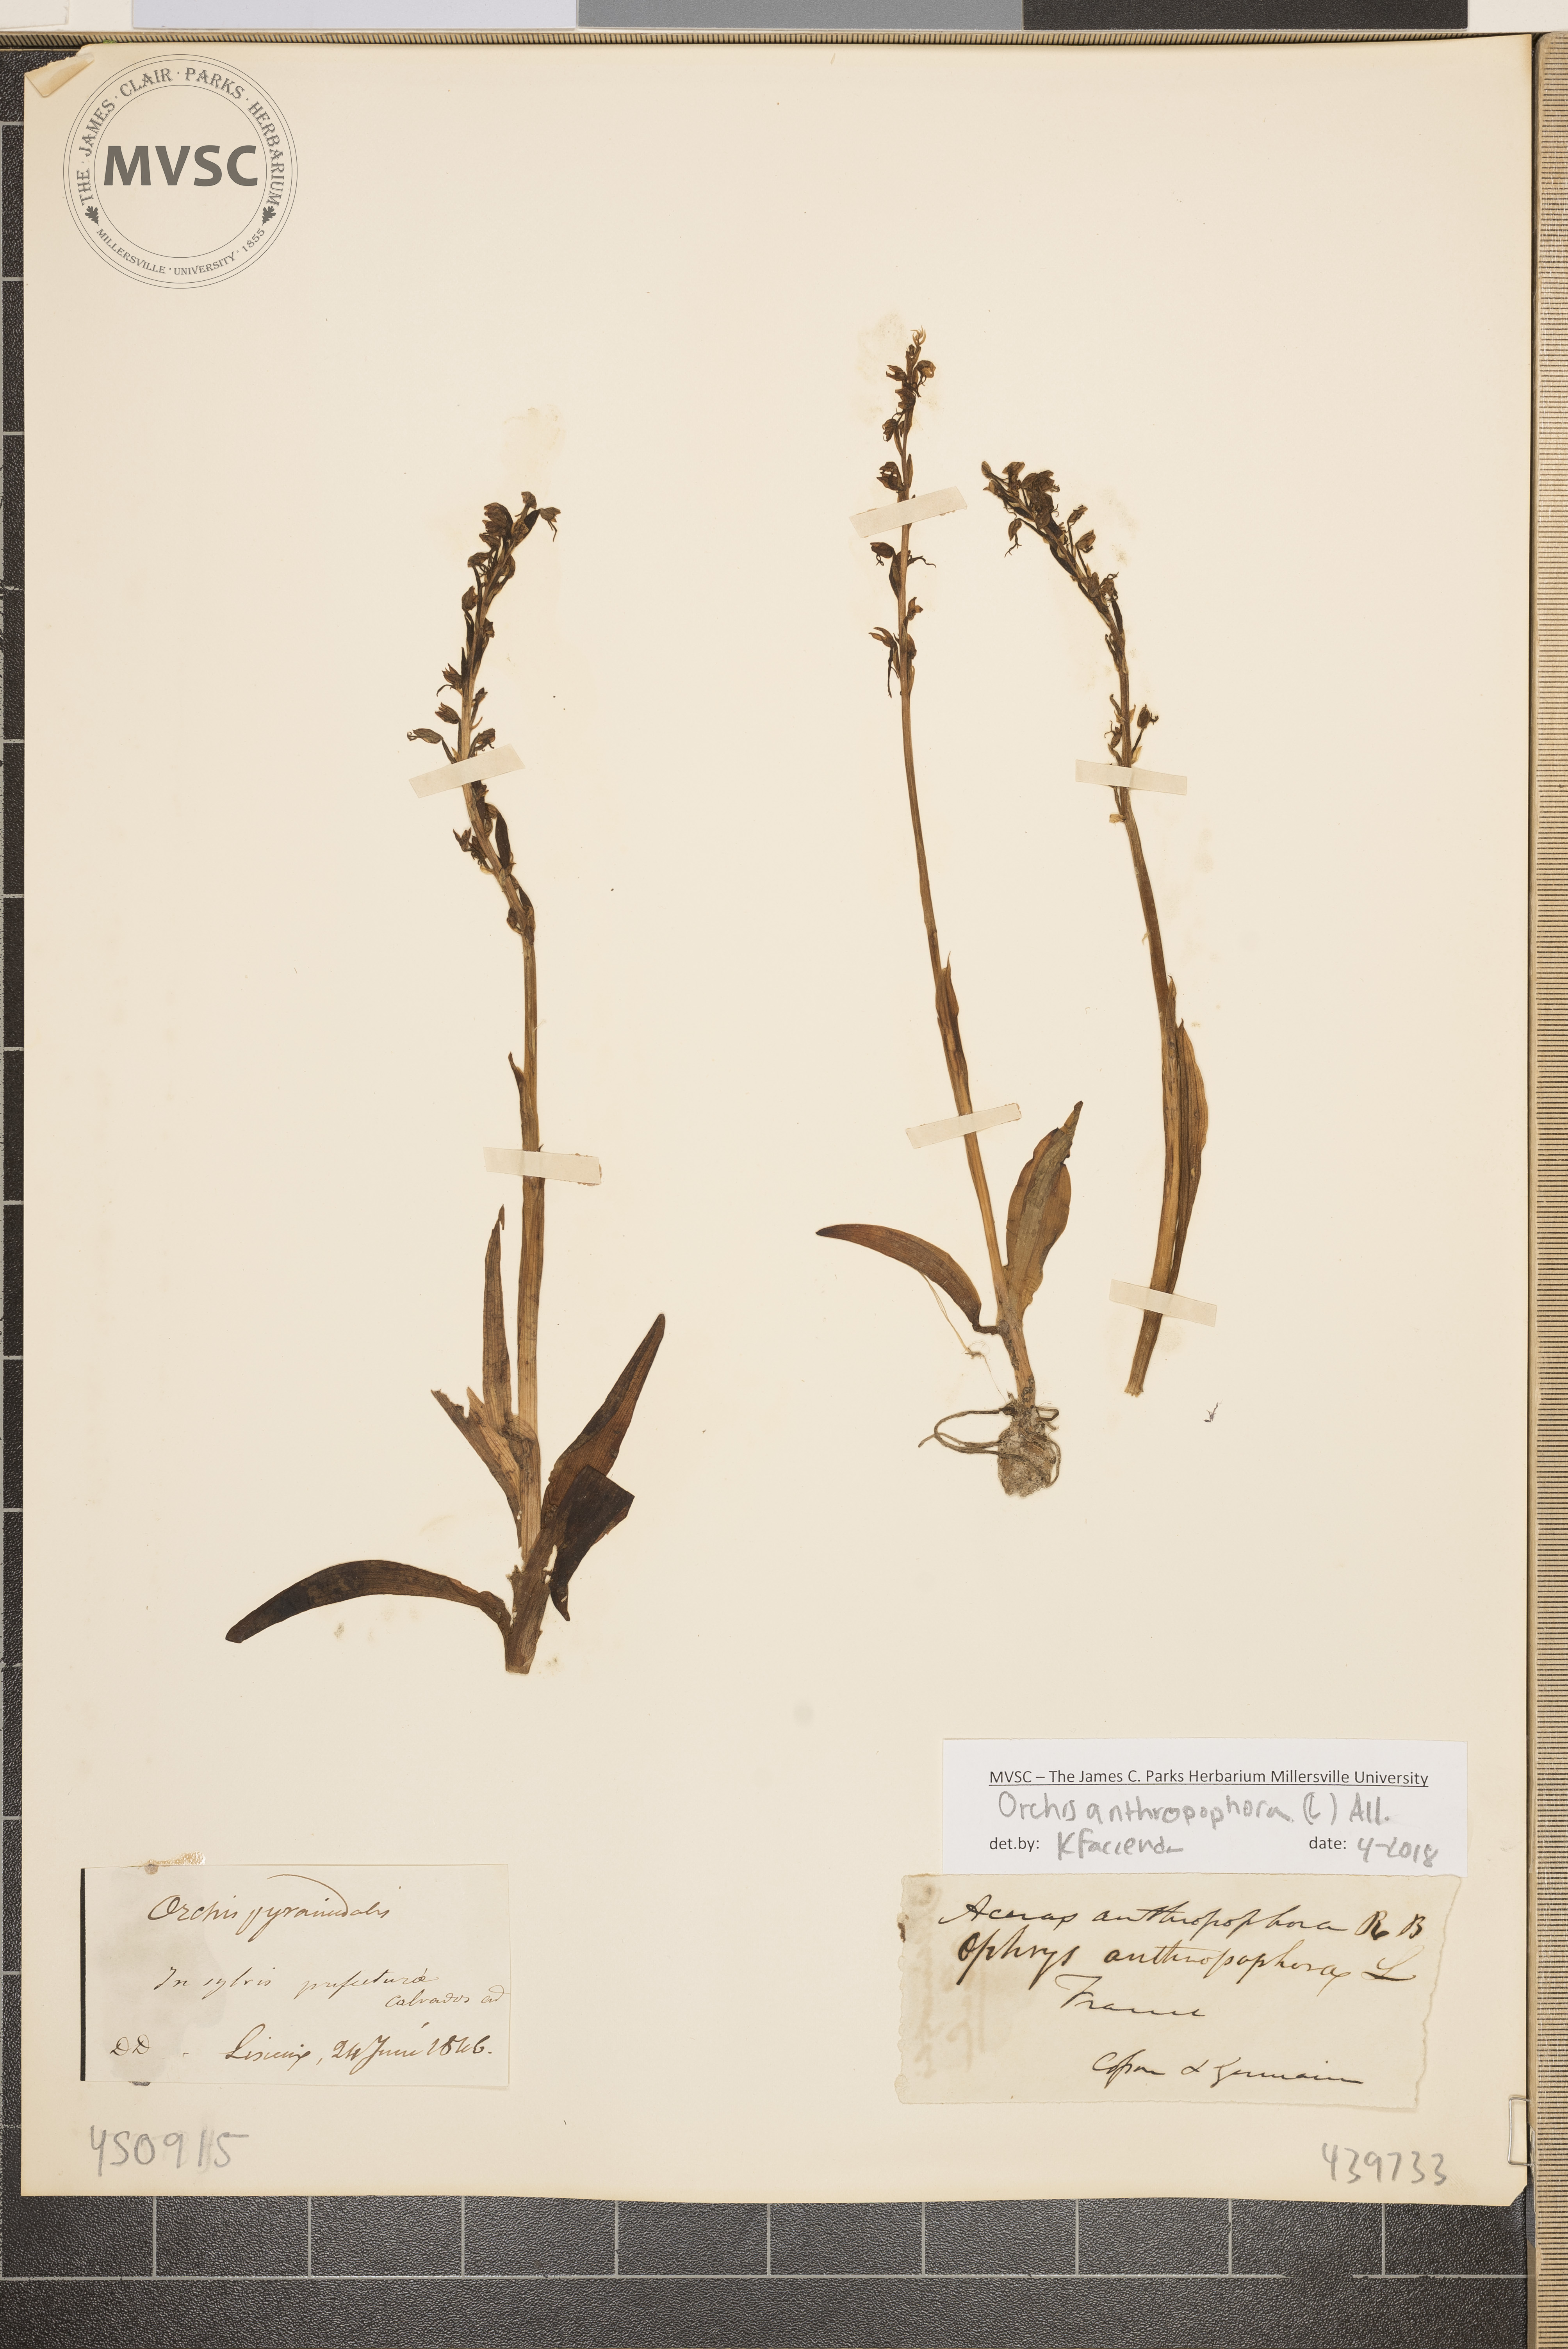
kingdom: Plantae
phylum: Tracheophyta
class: Liliopsida
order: Asparagales
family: Orchidaceae
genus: Orchis
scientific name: Orchis anthropophora
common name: man orchid
